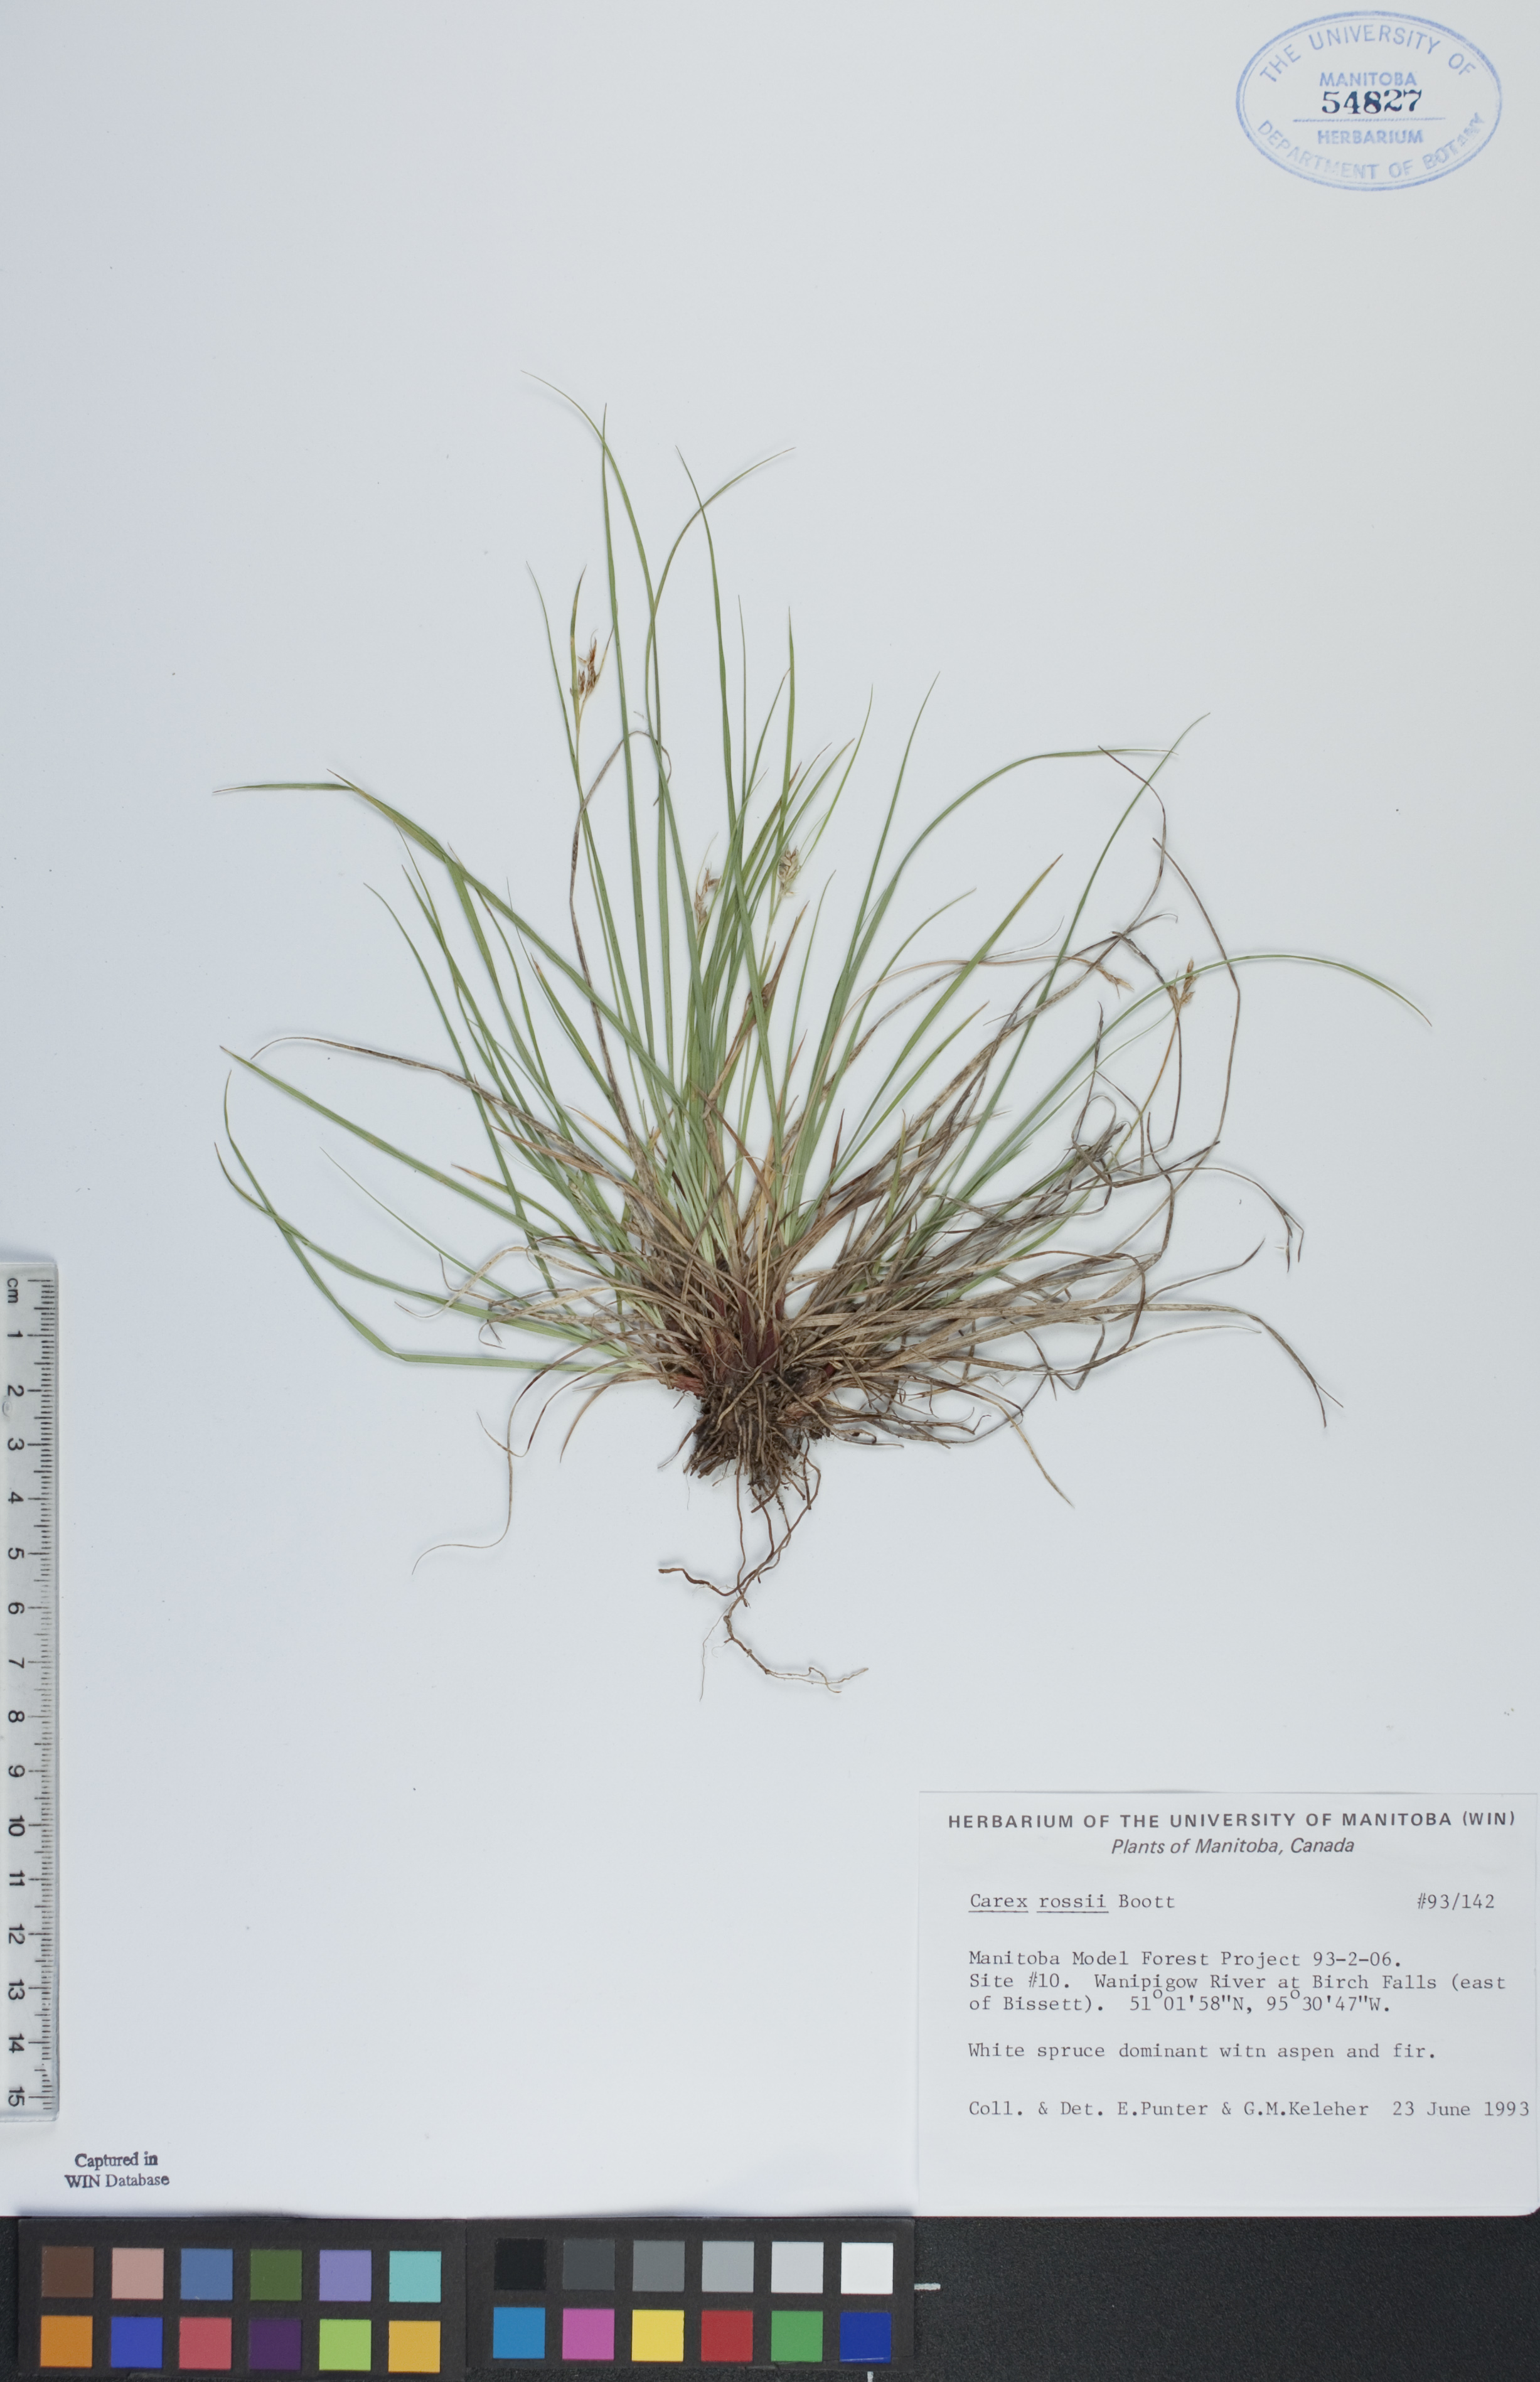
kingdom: Plantae
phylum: Tracheophyta
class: Liliopsida
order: Poales
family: Cyperaceae
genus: Carex
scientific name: Carex rossii
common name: Ross' sedge
